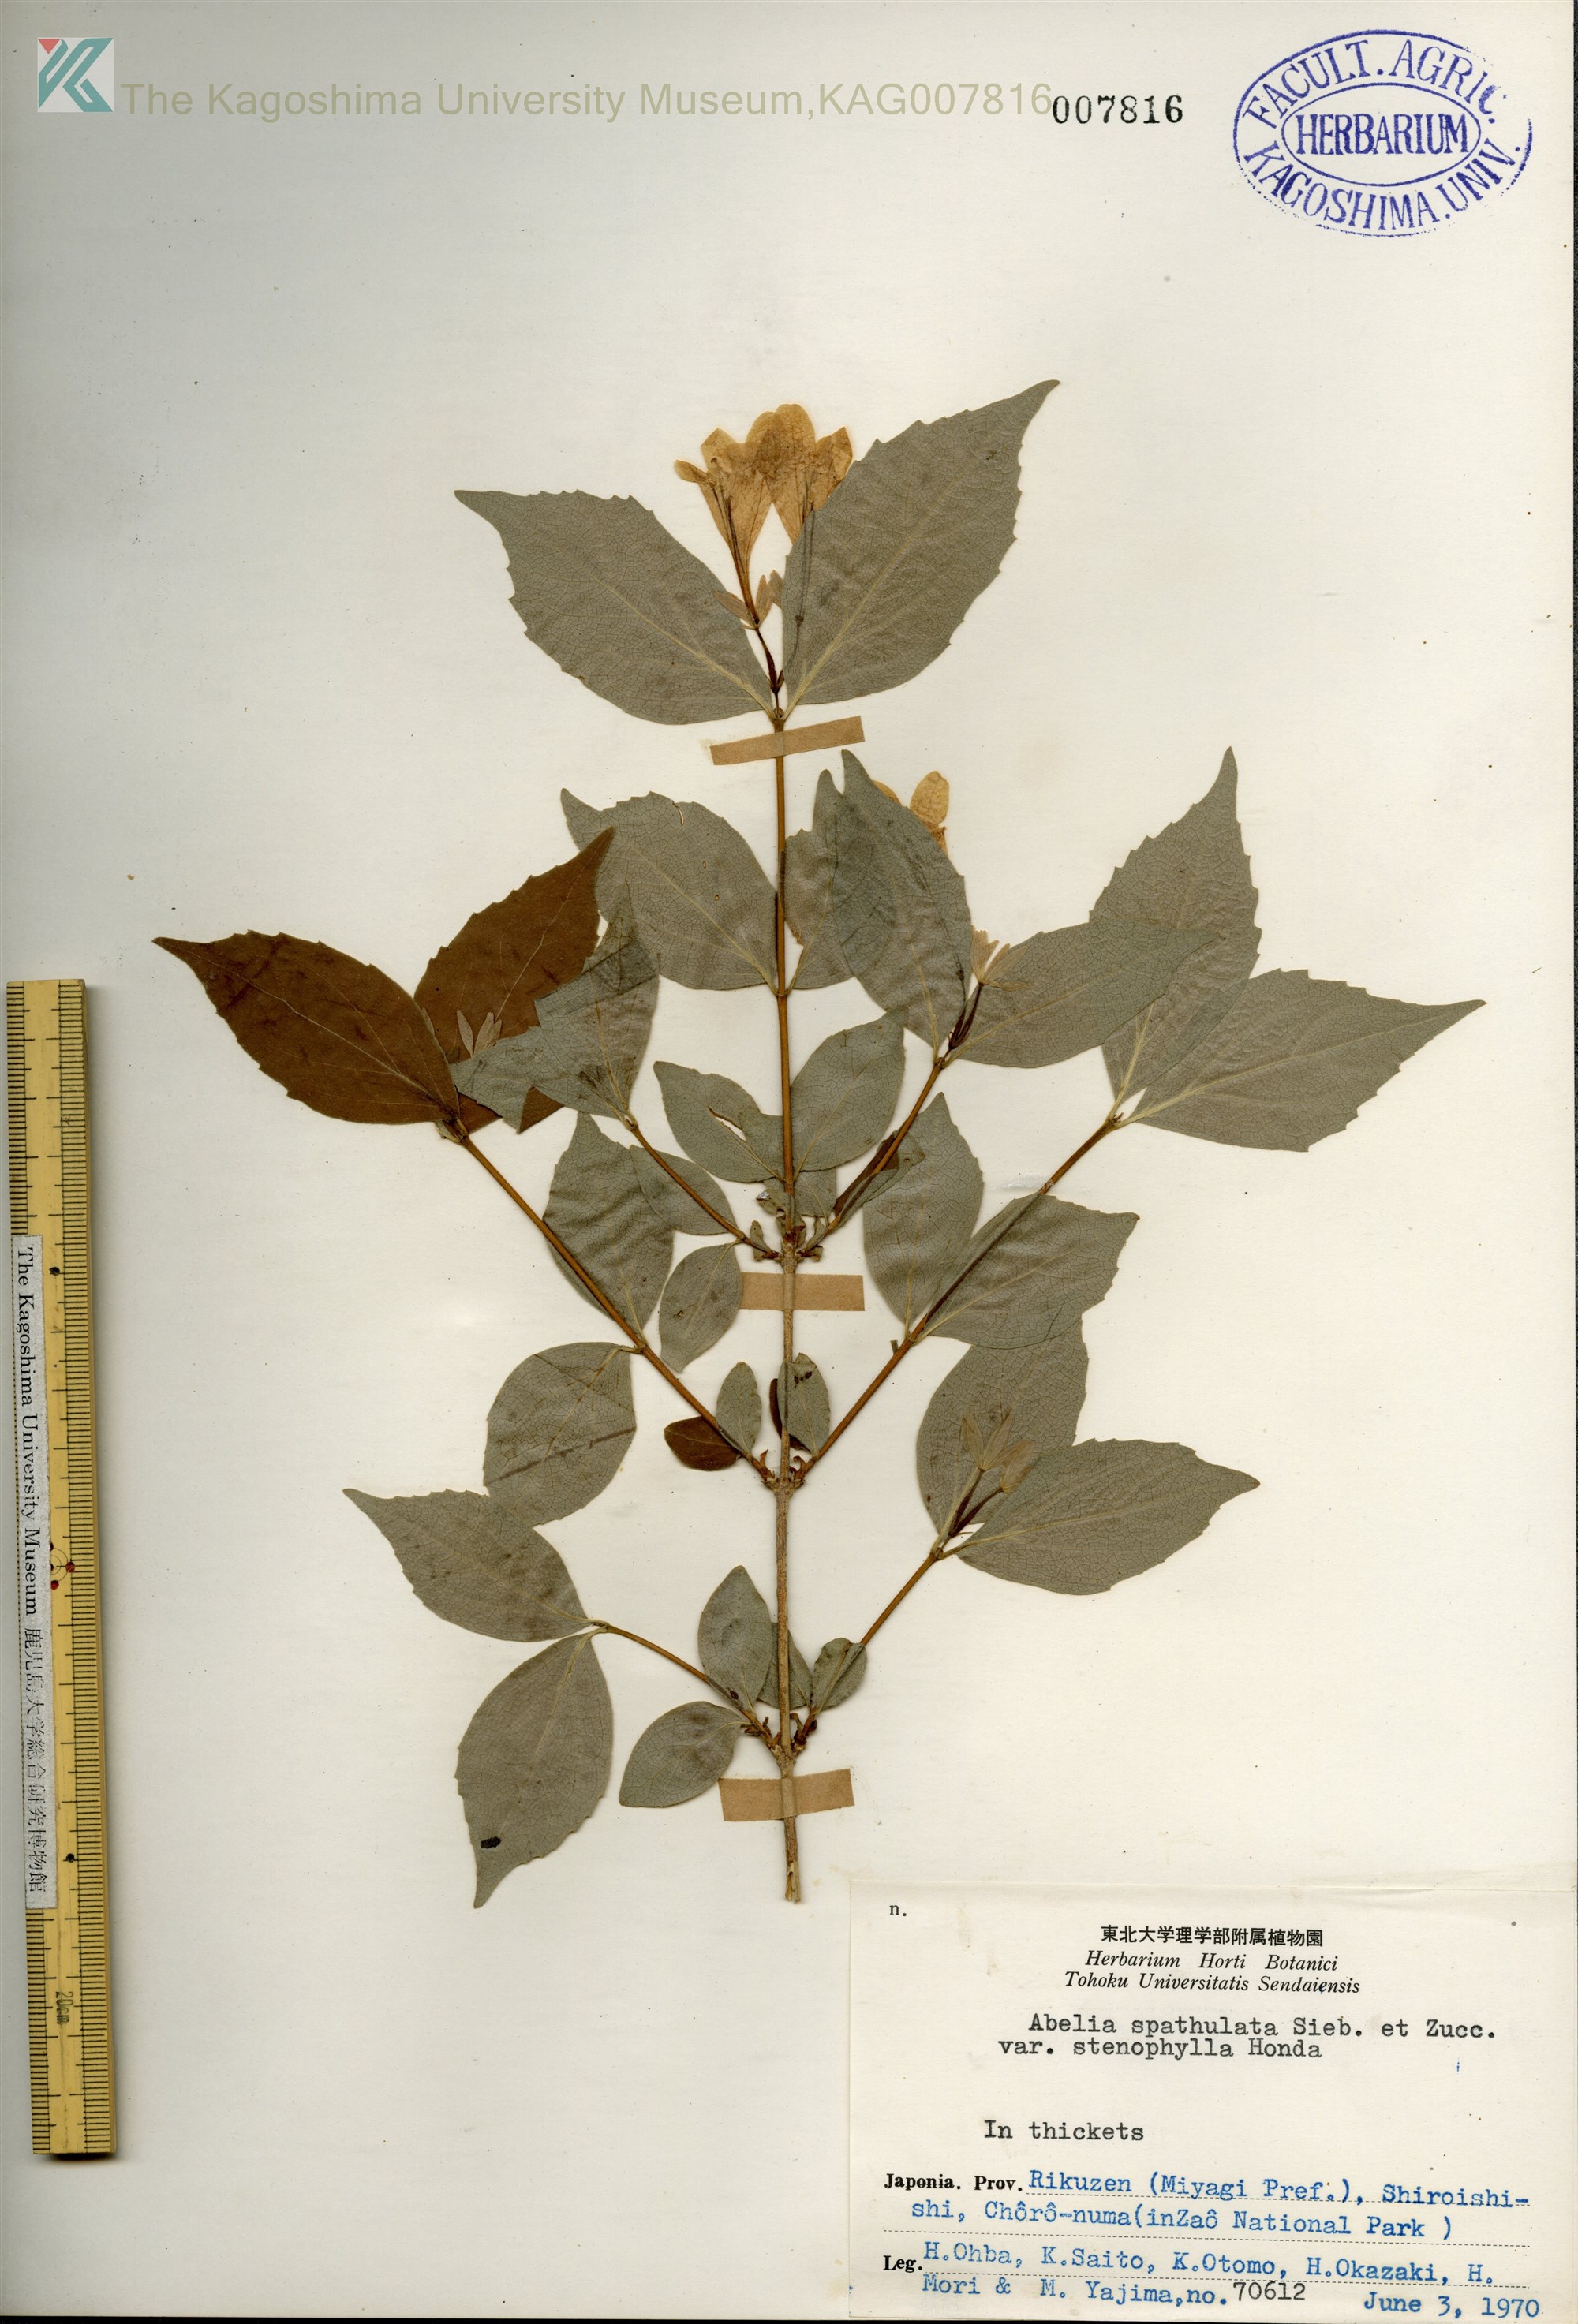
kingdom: Plantae
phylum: Tracheophyta
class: Magnoliopsida
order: Dipsacales
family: Caprifoliaceae
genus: Diabelia
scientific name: Diabelia spathulata
